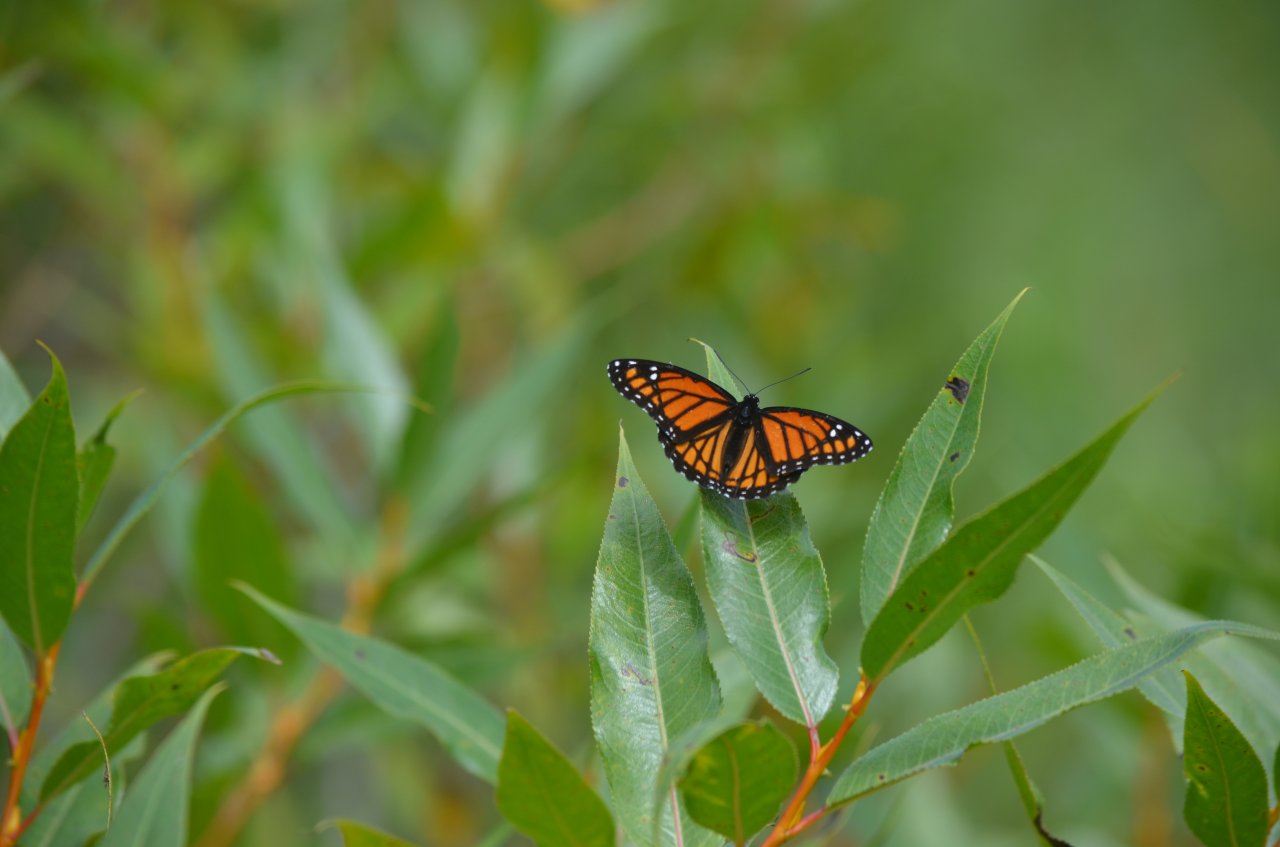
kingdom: Animalia
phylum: Arthropoda
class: Insecta
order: Lepidoptera
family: Nymphalidae
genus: Limenitis
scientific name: Limenitis archippus
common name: Viceroy
